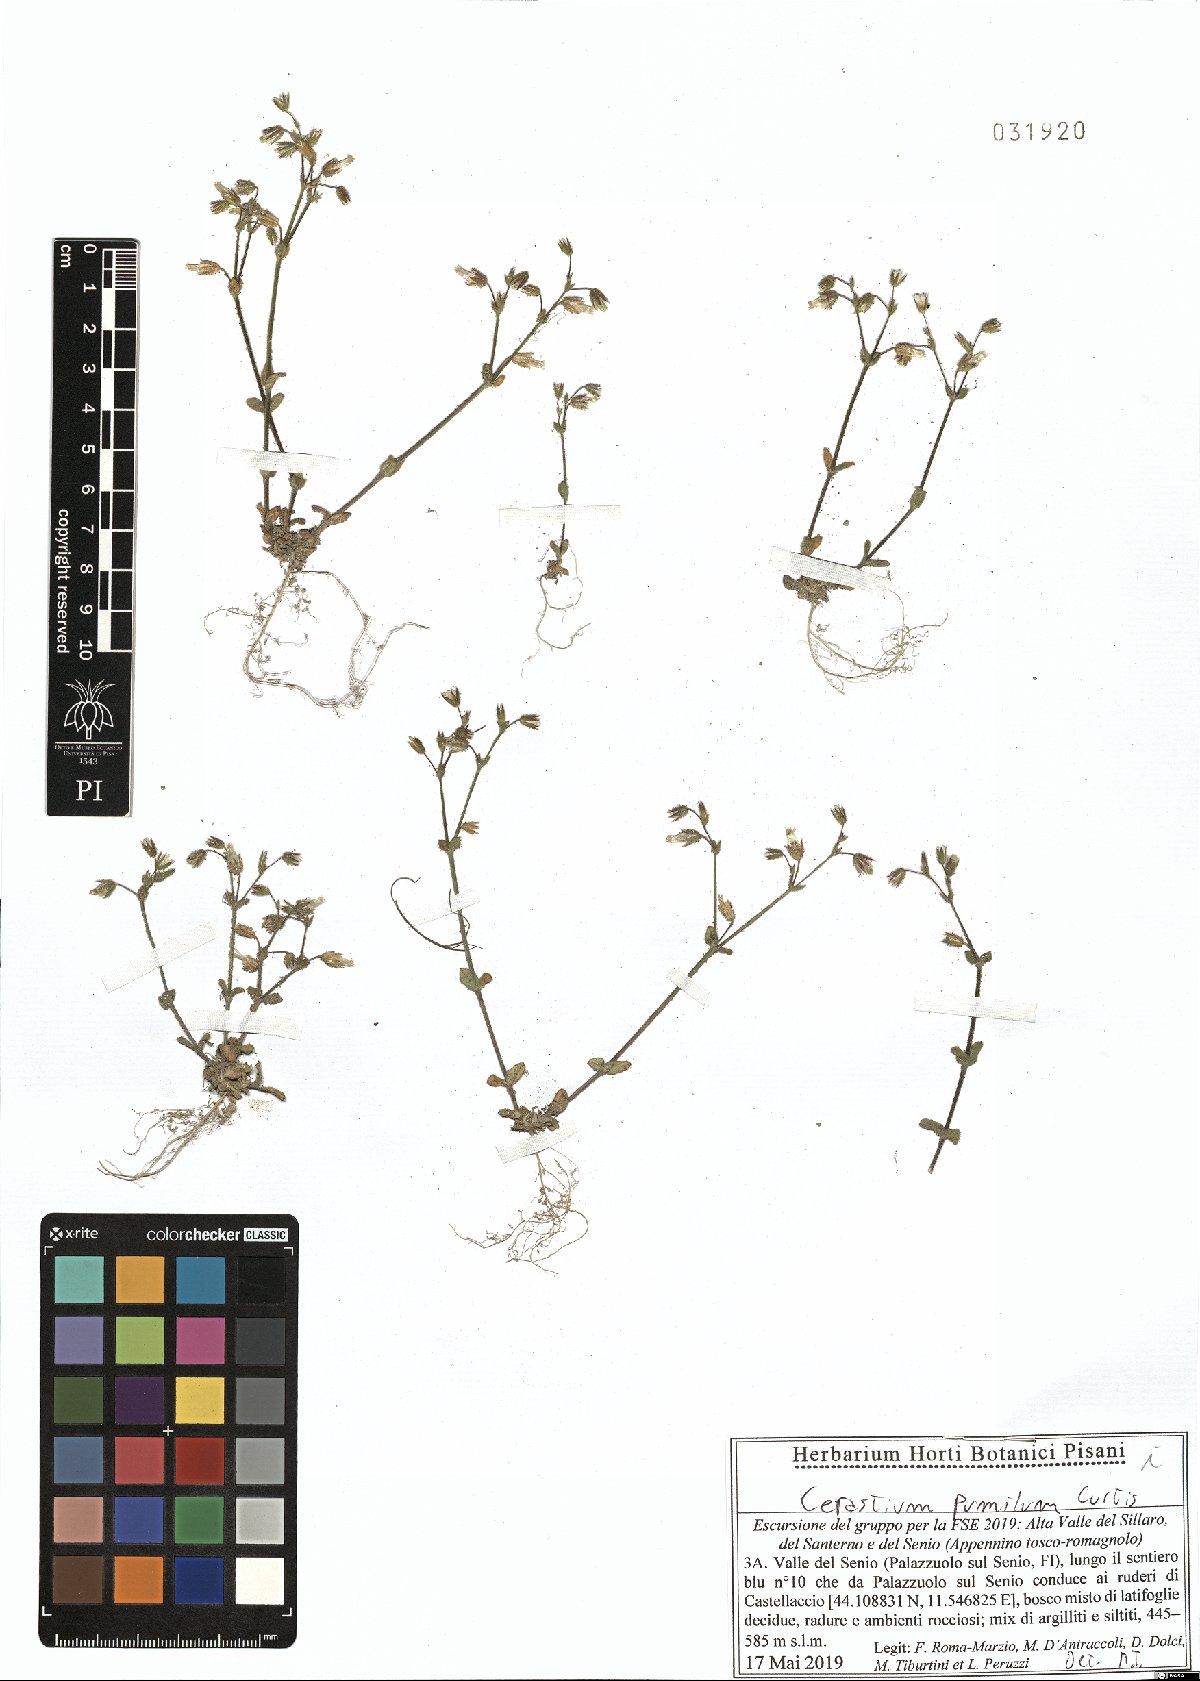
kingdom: Plantae
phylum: Tracheophyta
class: Magnoliopsida
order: Caryophyllales
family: Caryophyllaceae
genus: Cerastium
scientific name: Cerastium pumilum
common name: Dwarf mouse-ear
